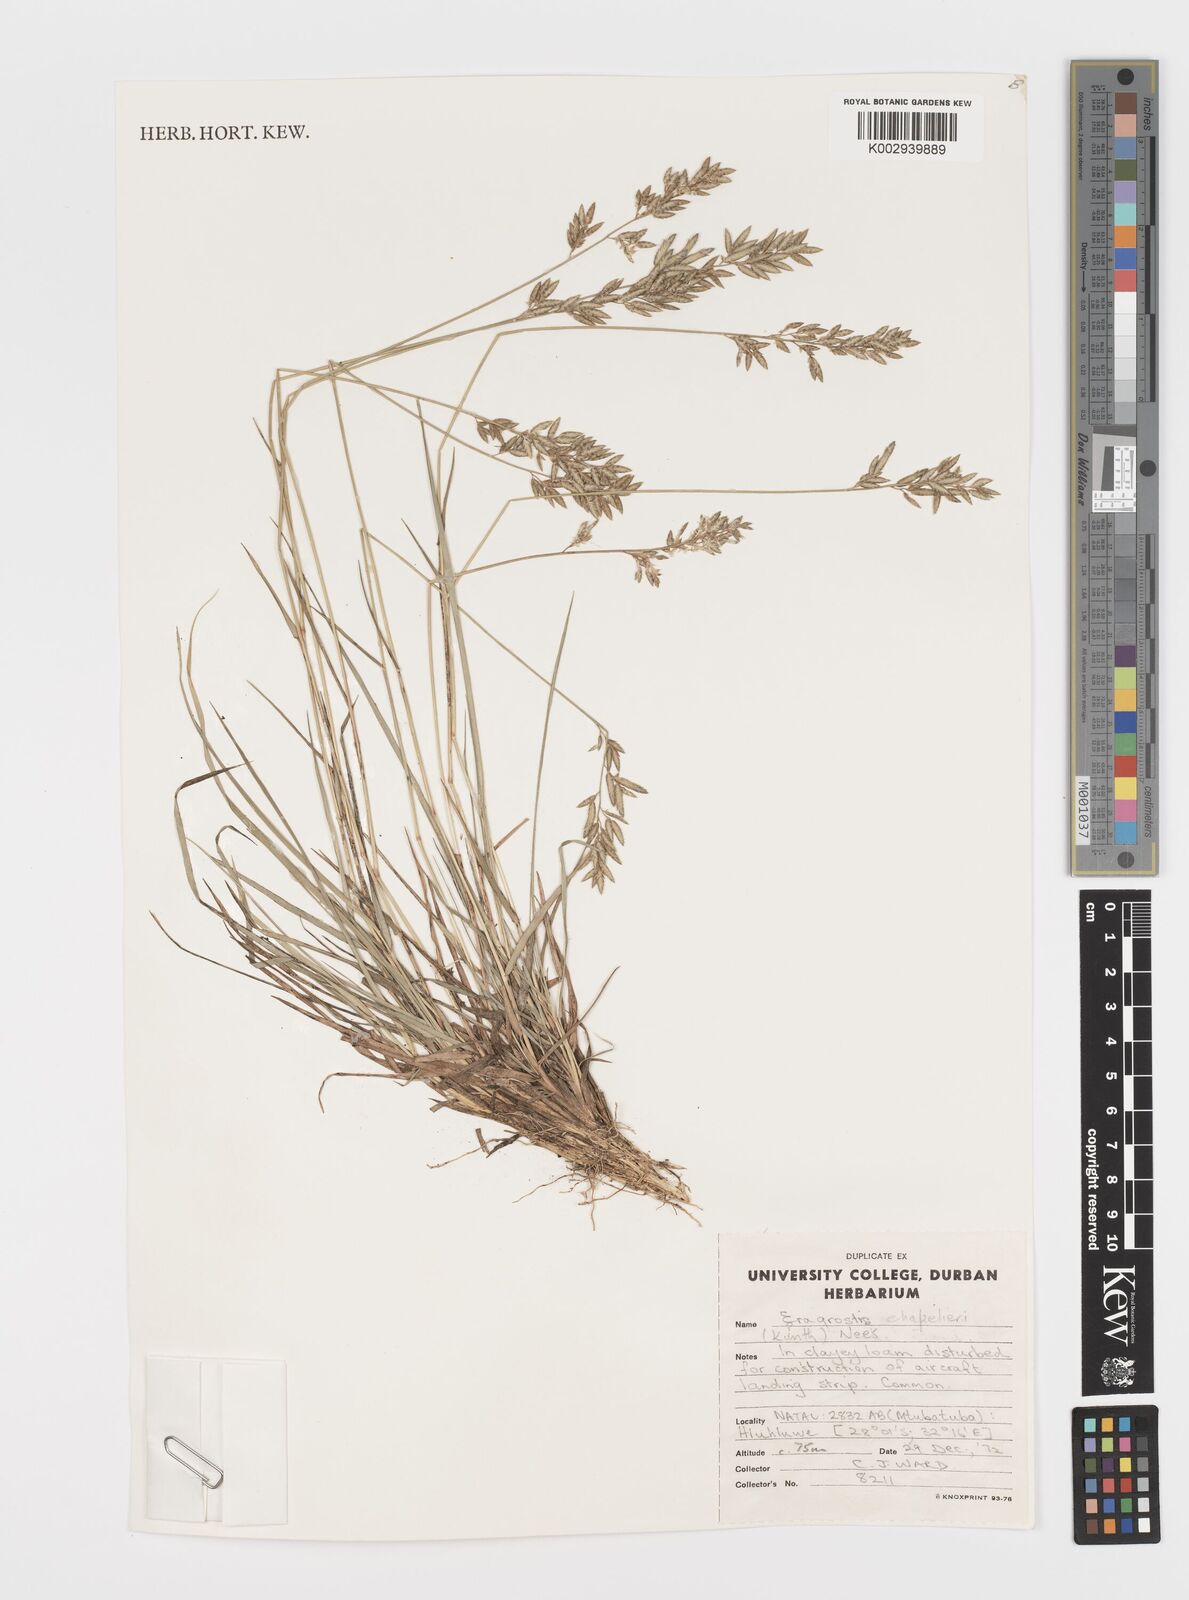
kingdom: Plantae
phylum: Tracheophyta
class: Liliopsida
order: Poales
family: Poaceae
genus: Eragrostis
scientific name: Eragrostis chapelieri
